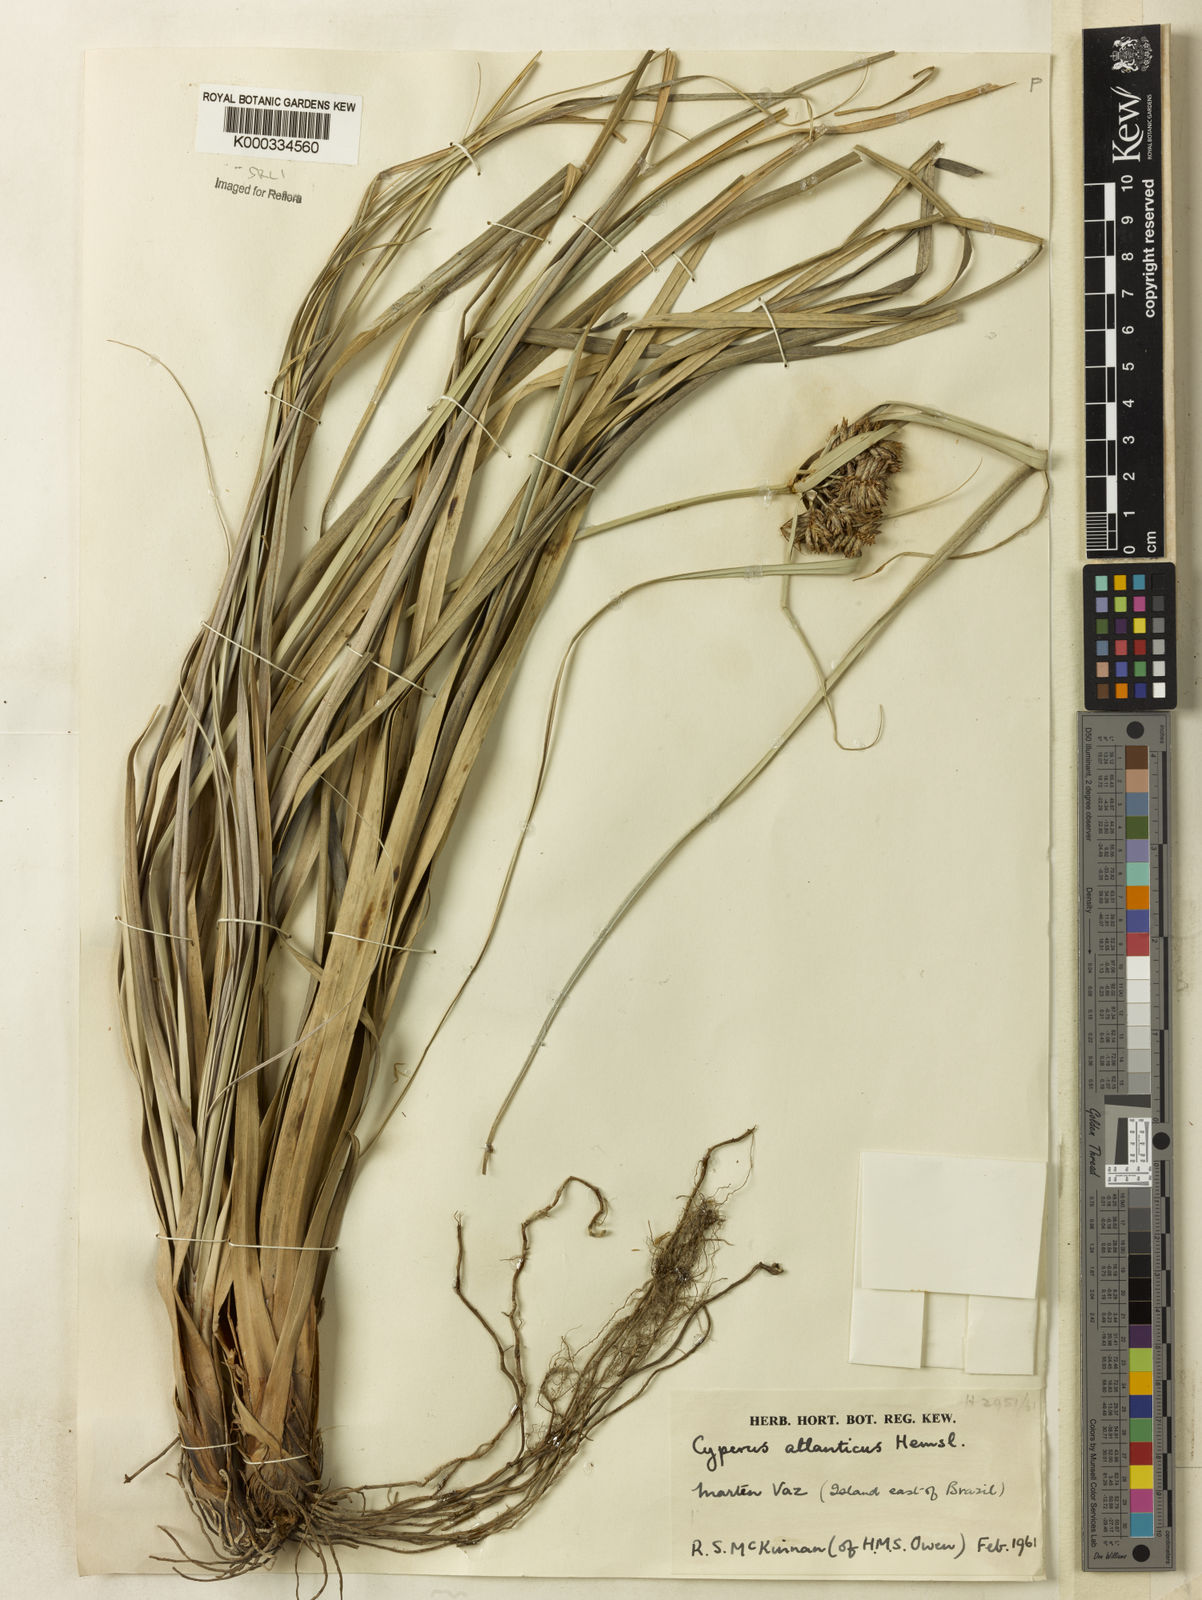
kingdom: Plantae
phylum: Tracheophyta
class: Liliopsida
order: Poales
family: Cyperaceae
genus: Cyperus
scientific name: Cyperus appendiculatus
